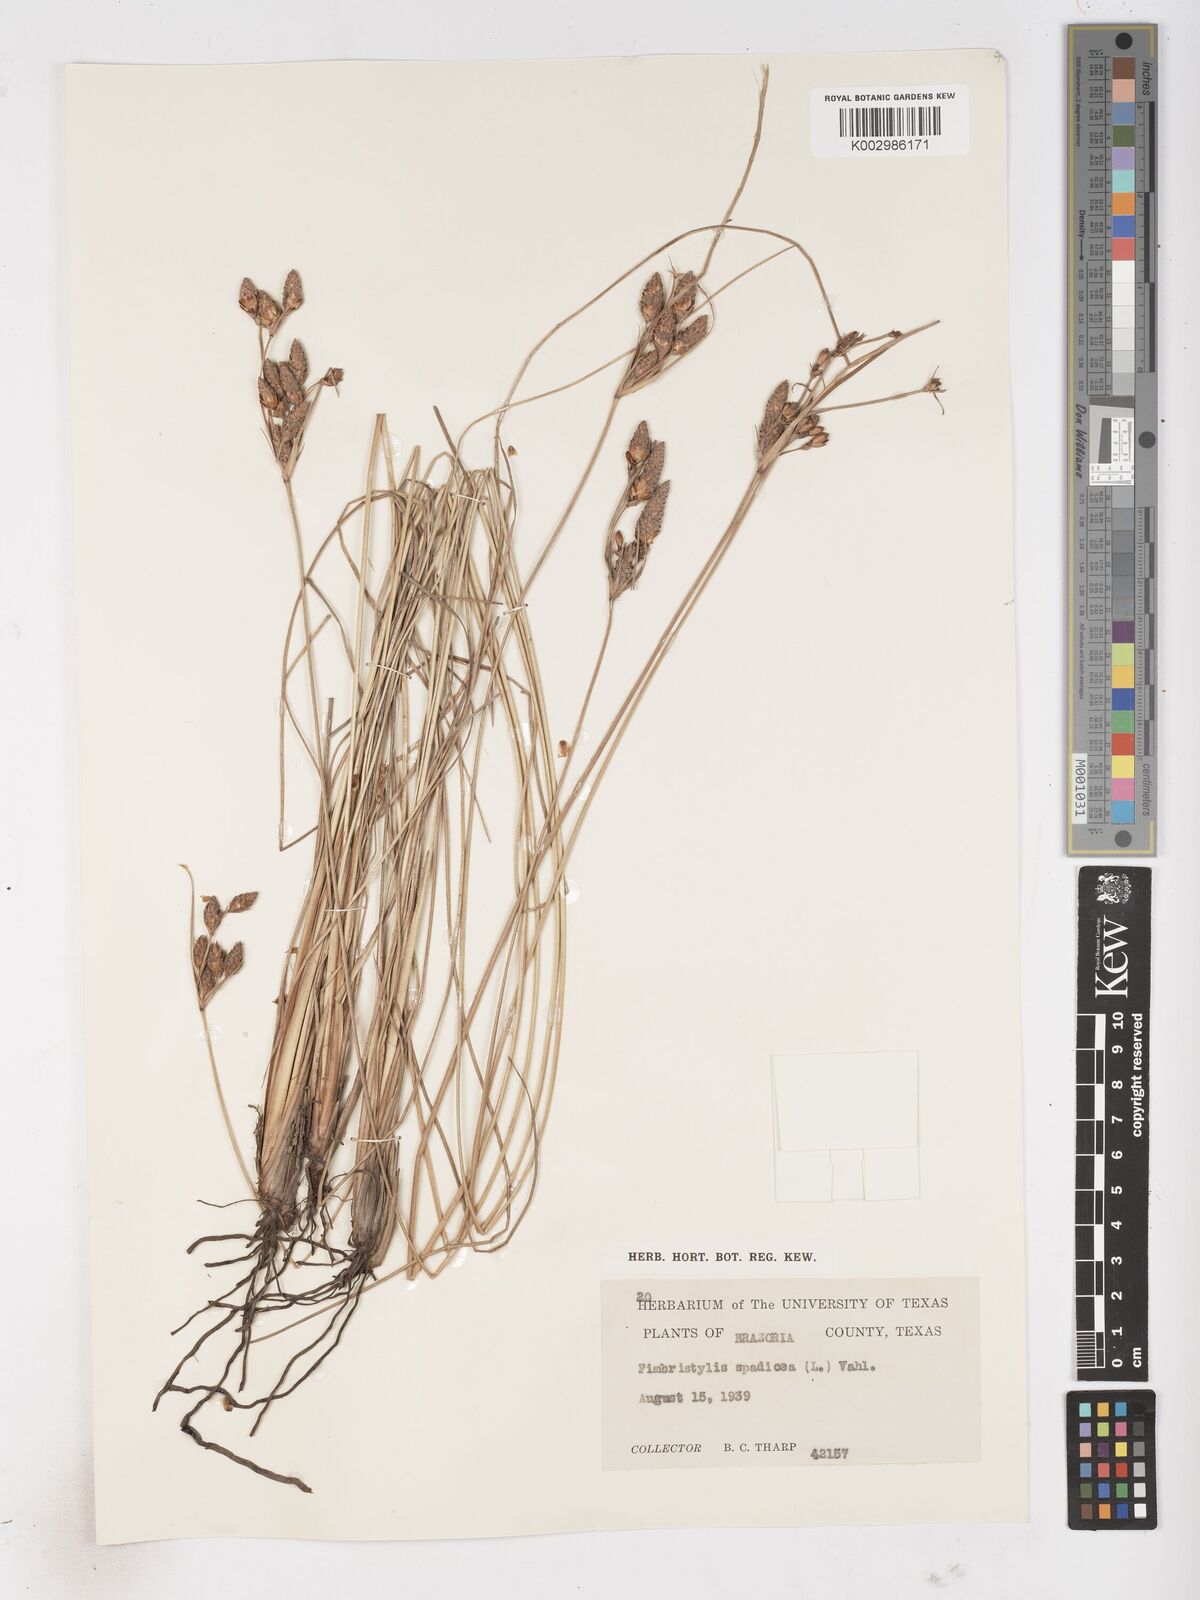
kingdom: Plantae
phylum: Tracheophyta
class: Liliopsida
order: Poales
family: Cyperaceae
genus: Fimbristylis
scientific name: Fimbristylis spadicea
